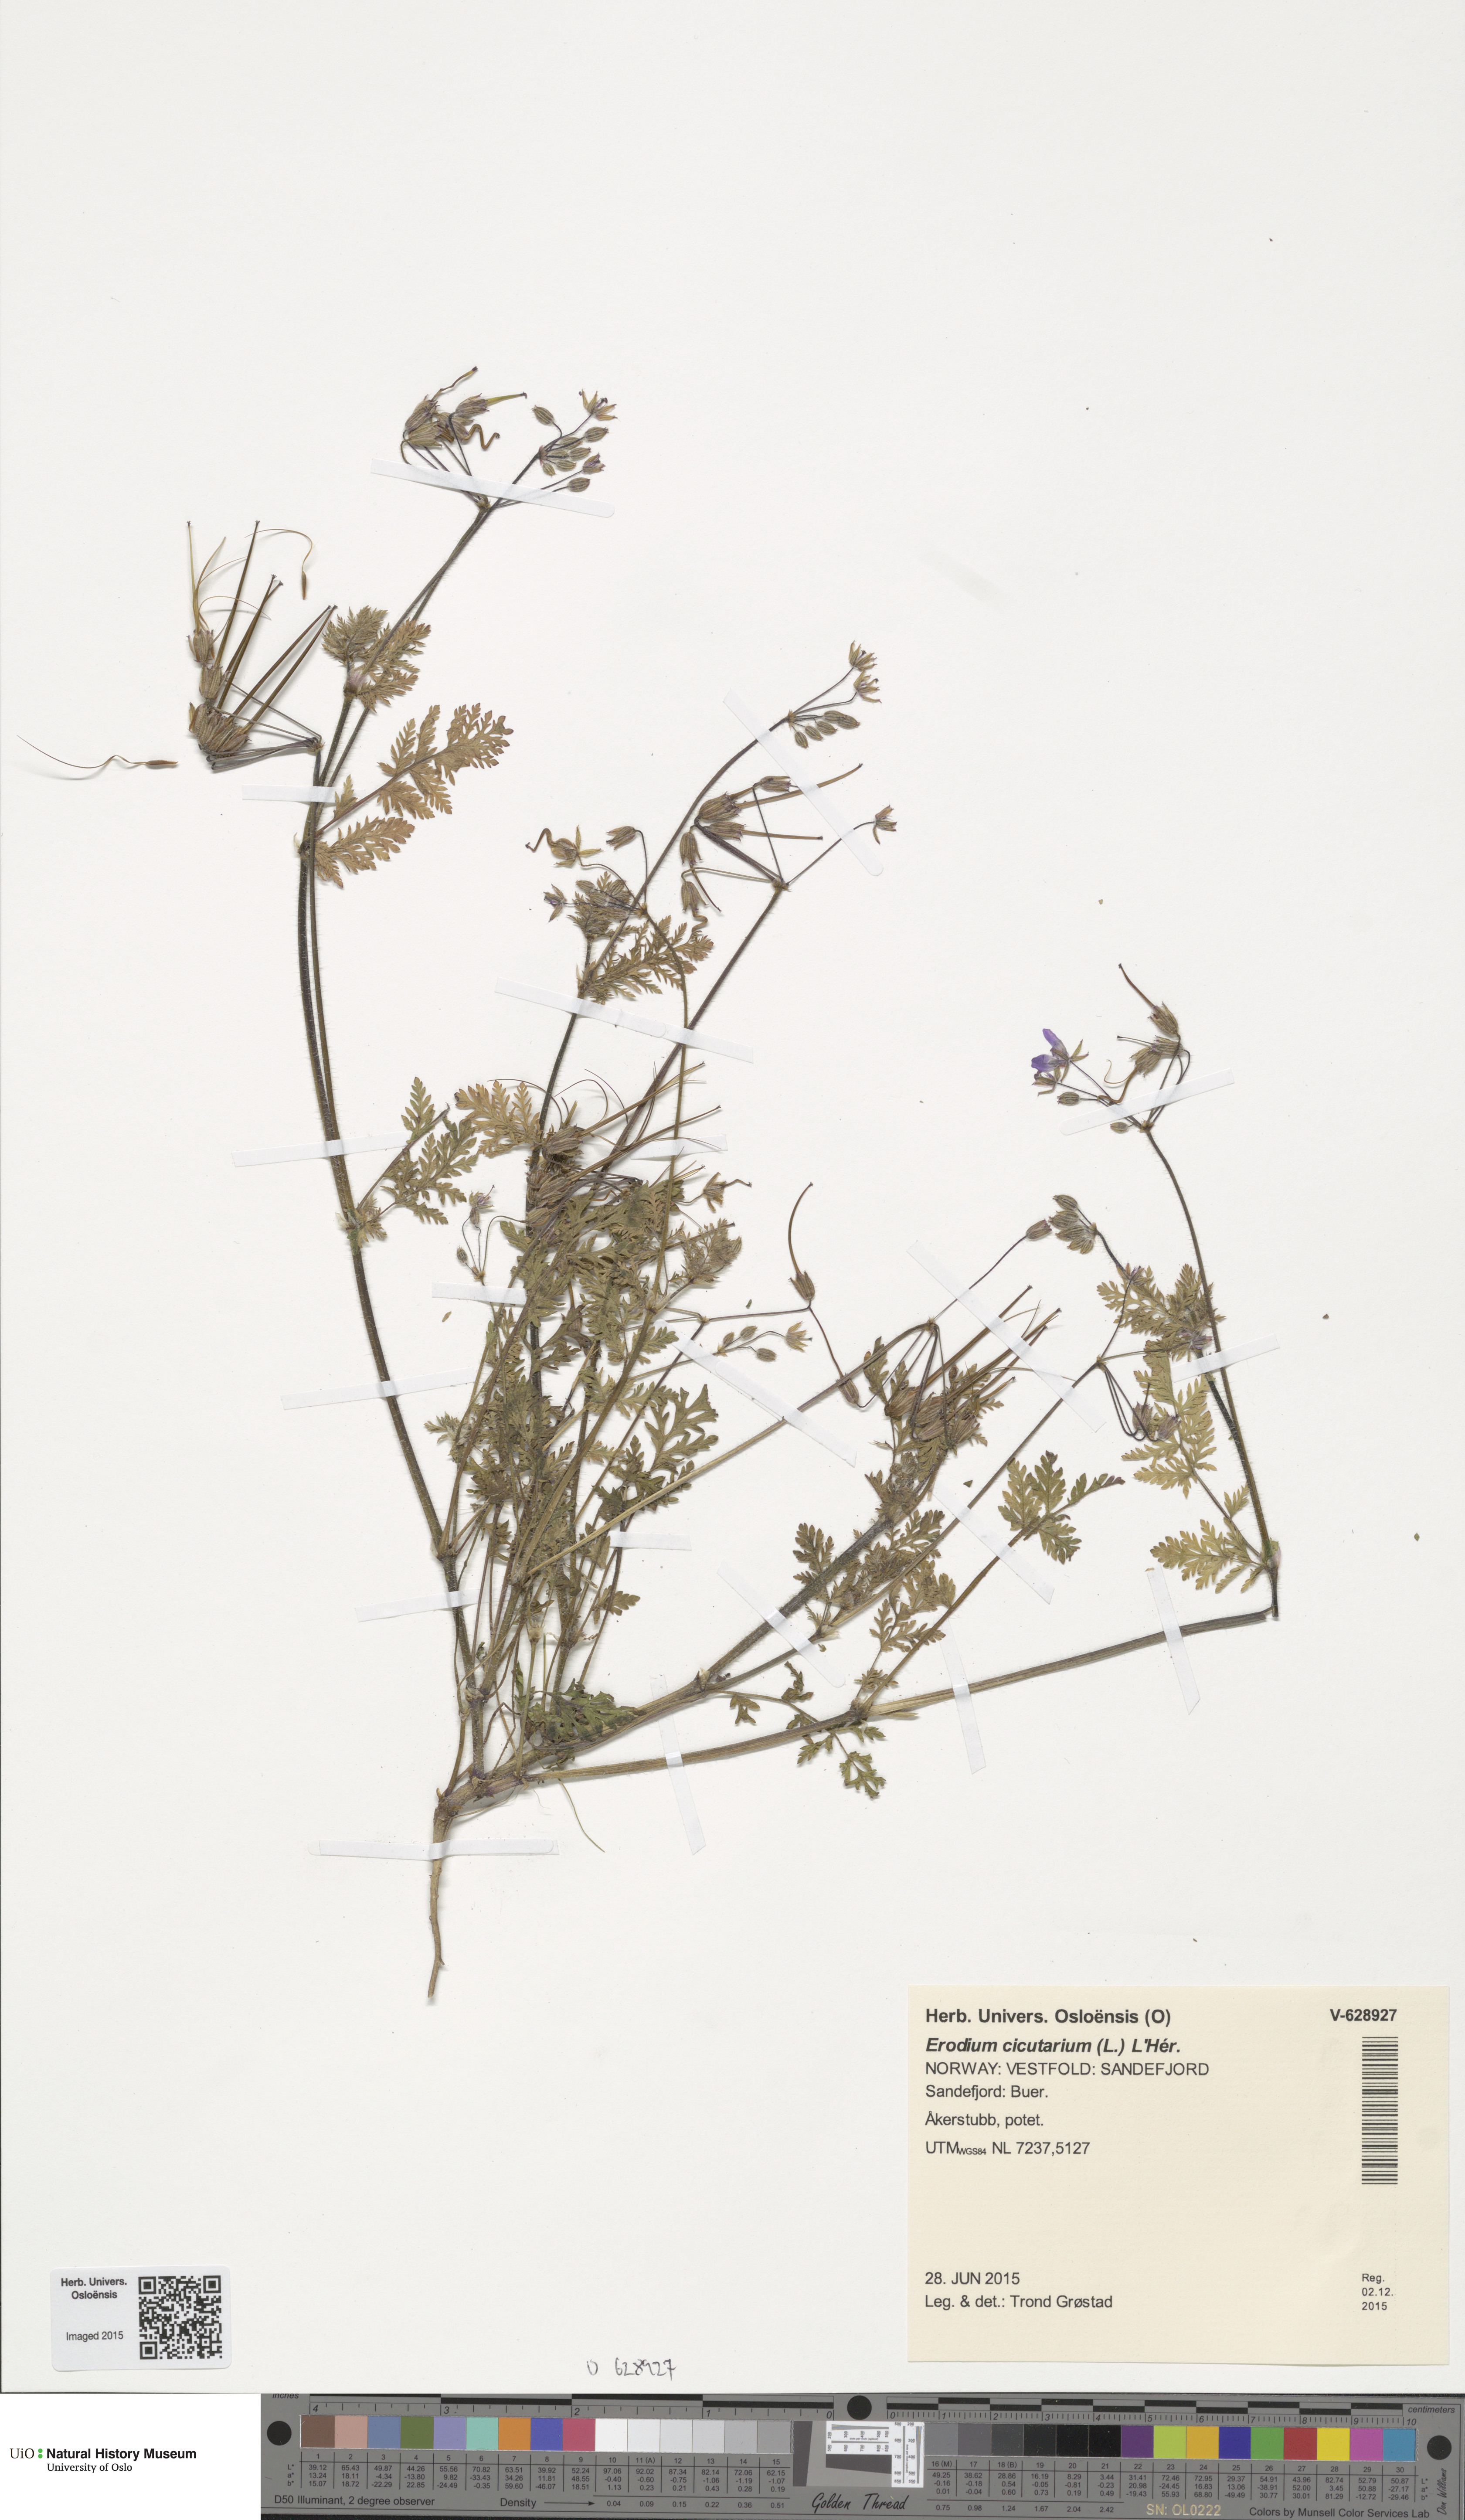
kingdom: Plantae
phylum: Tracheophyta
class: Magnoliopsida
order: Geraniales
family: Geraniaceae
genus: Erodium
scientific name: Erodium cicutarium
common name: Common stork's-bill
